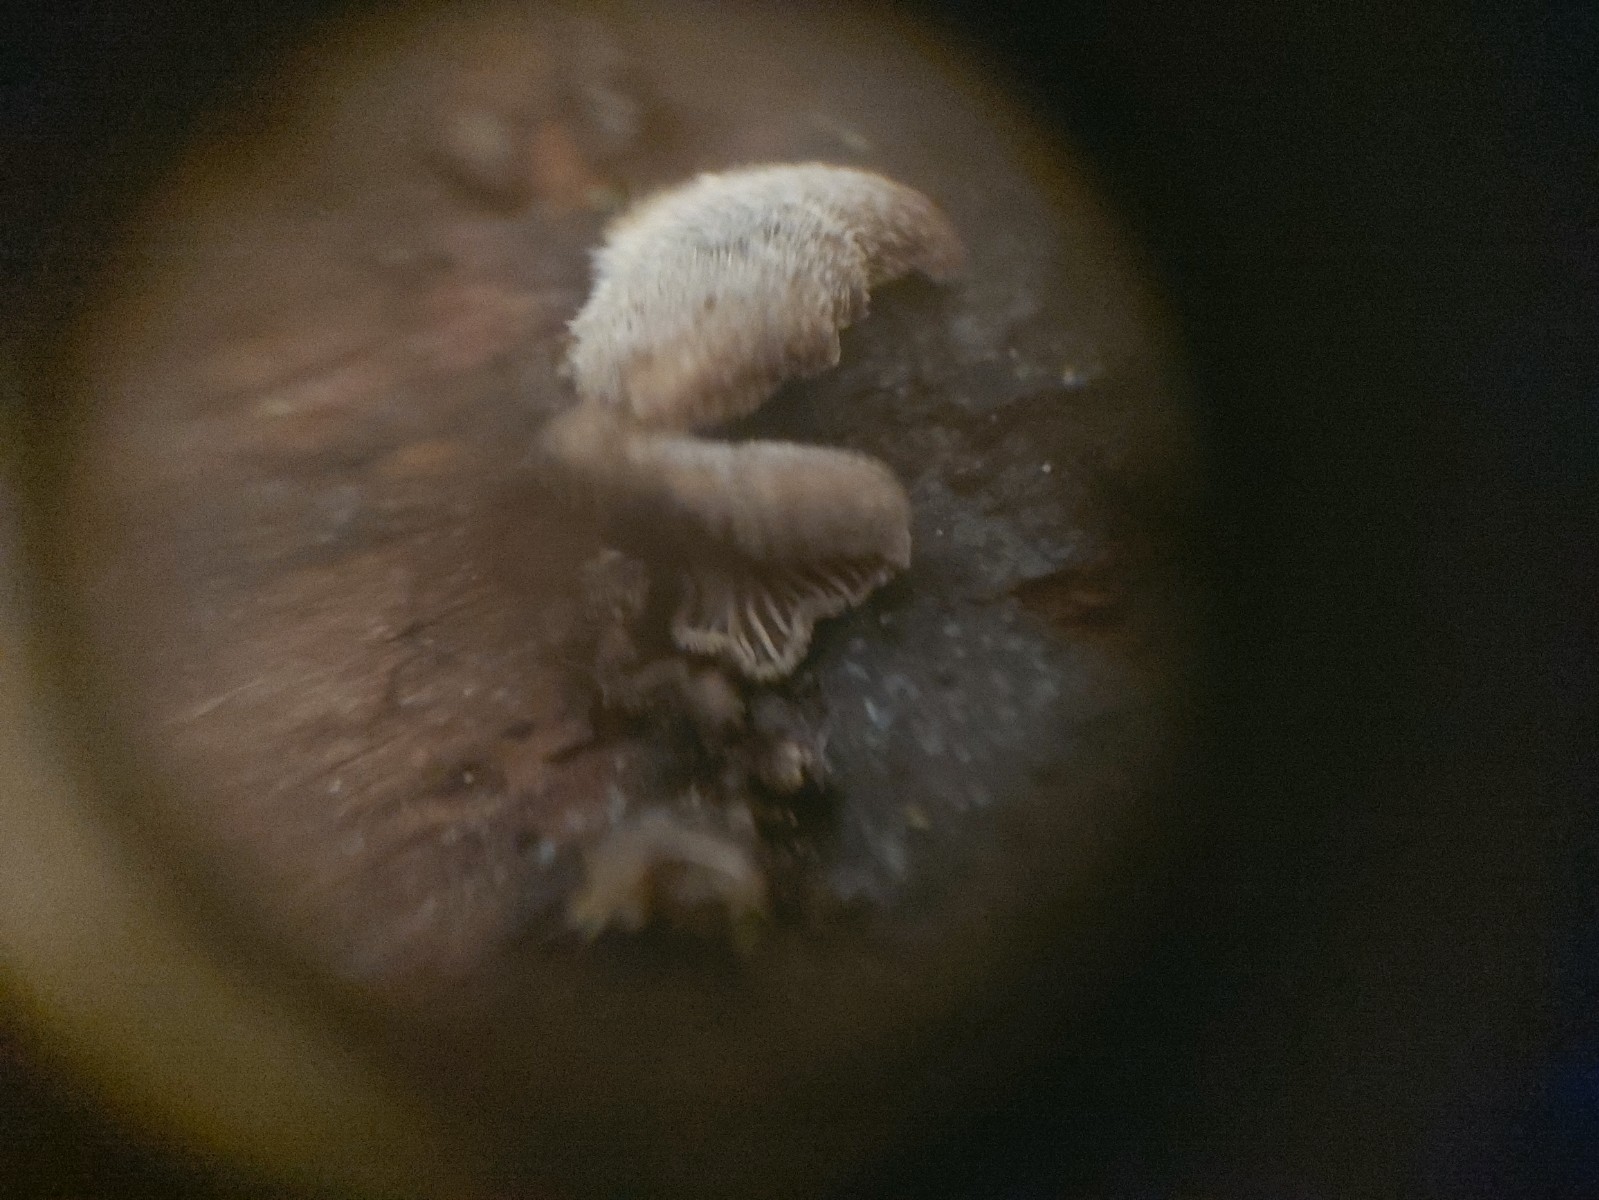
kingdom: Fungi
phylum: Basidiomycota
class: Agaricomycetes
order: Agaricales
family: Pleurotaceae
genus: Hohenbuehelia
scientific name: Hohenbuehelia
